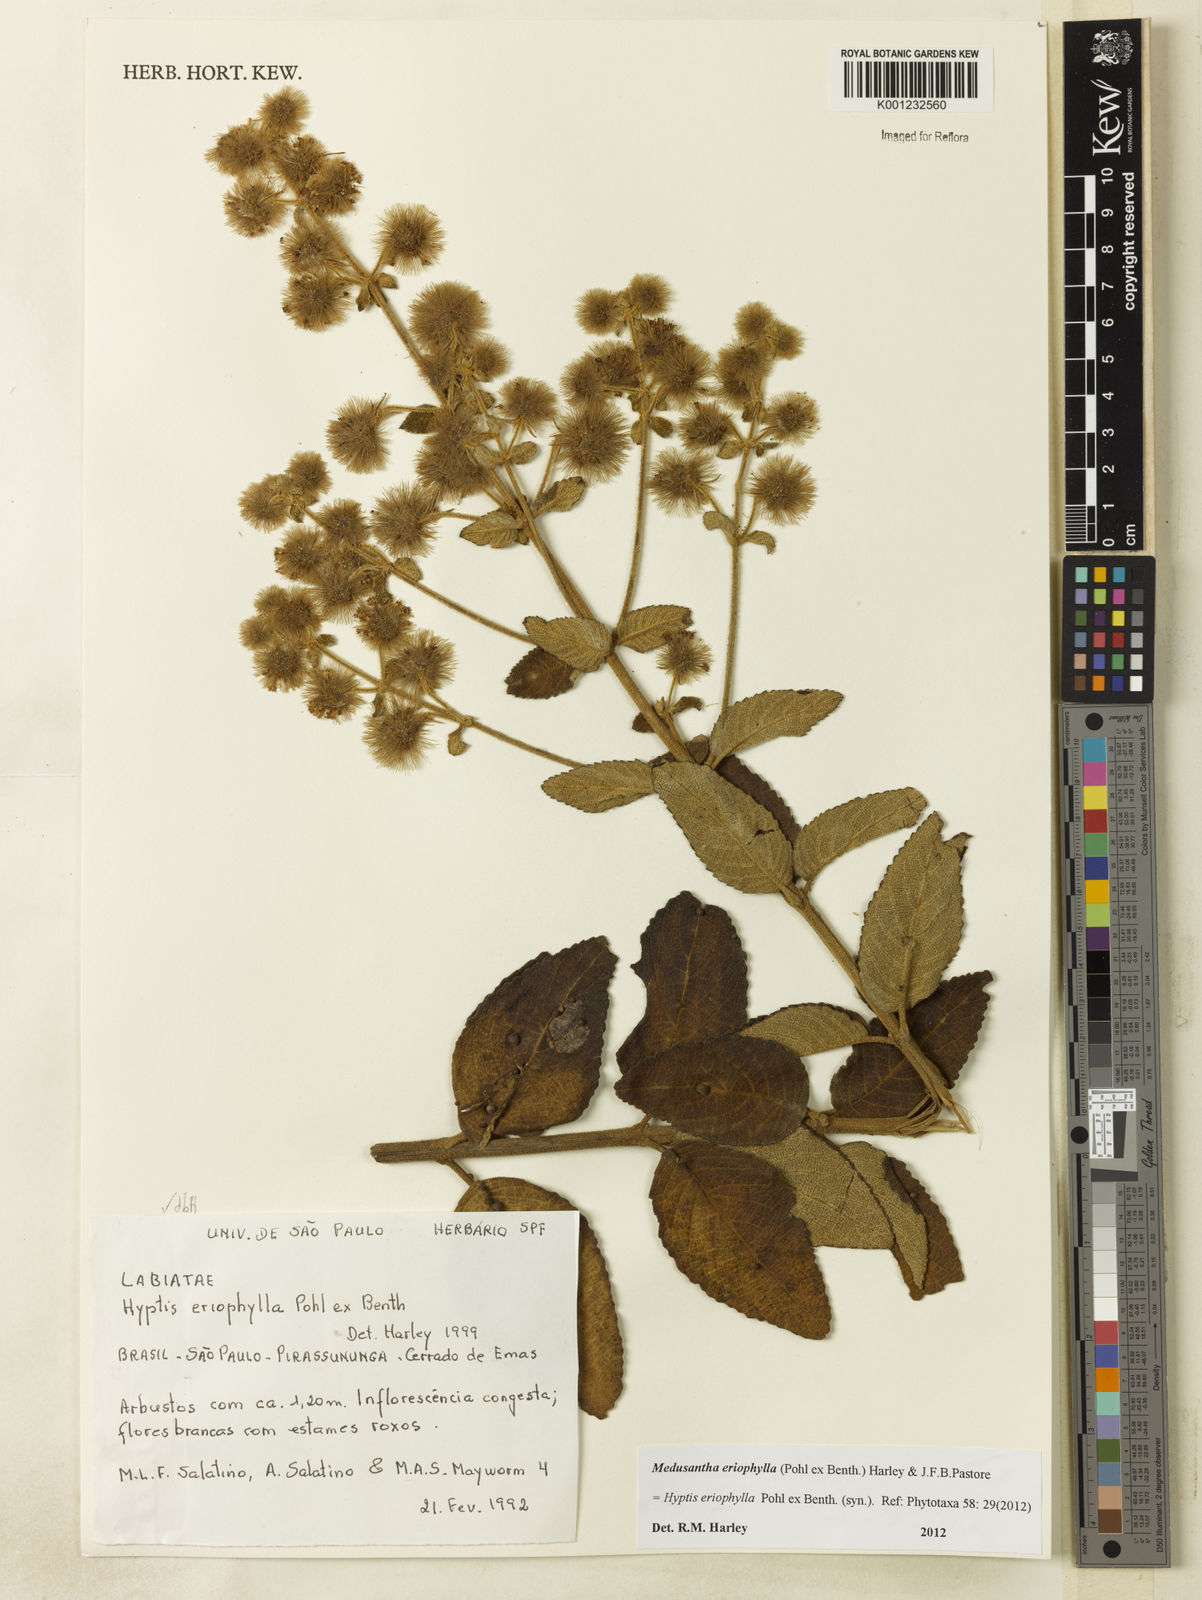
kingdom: Plantae
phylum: Tracheophyta
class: Magnoliopsida
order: Lamiales
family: Lamiaceae
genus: Medusantha
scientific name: Medusantha eriophylla
